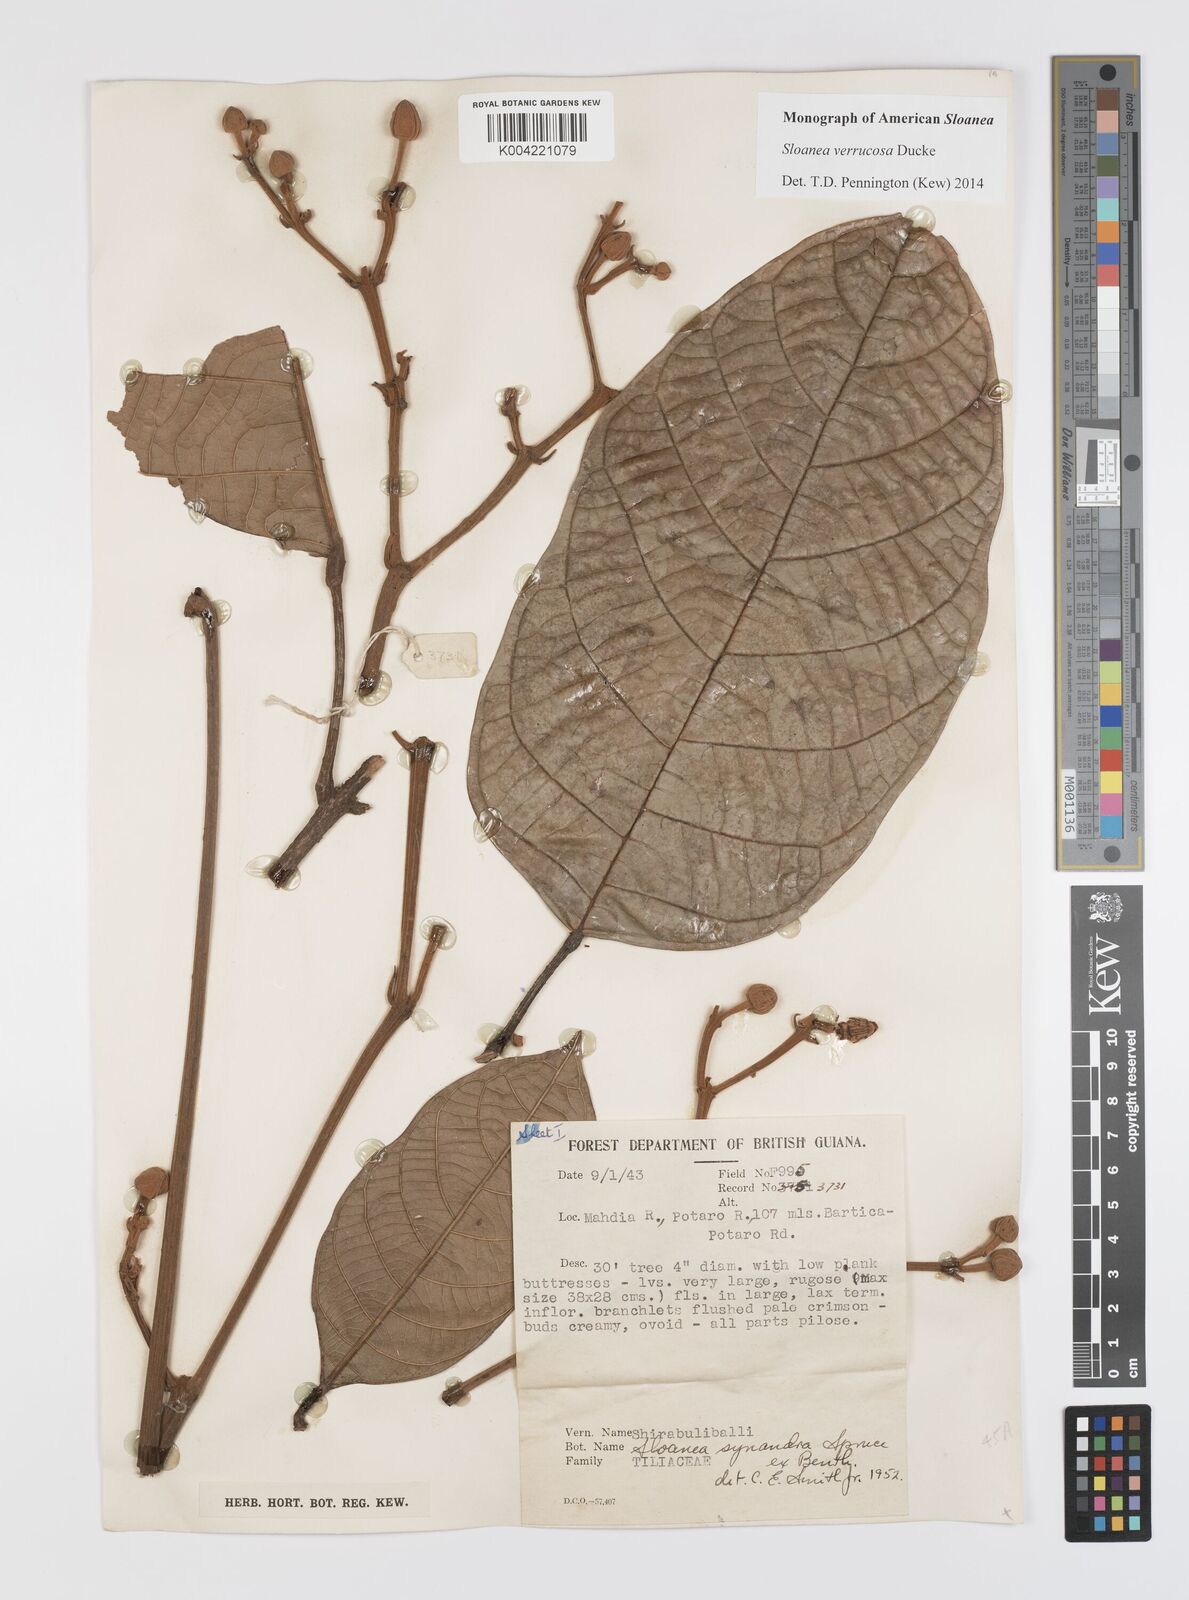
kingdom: Plantae
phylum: Tracheophyta
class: Magnoliopsida
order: Oxalidales
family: Elaeocarpaceae
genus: Sloanea
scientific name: Sloanea schomburgkii
